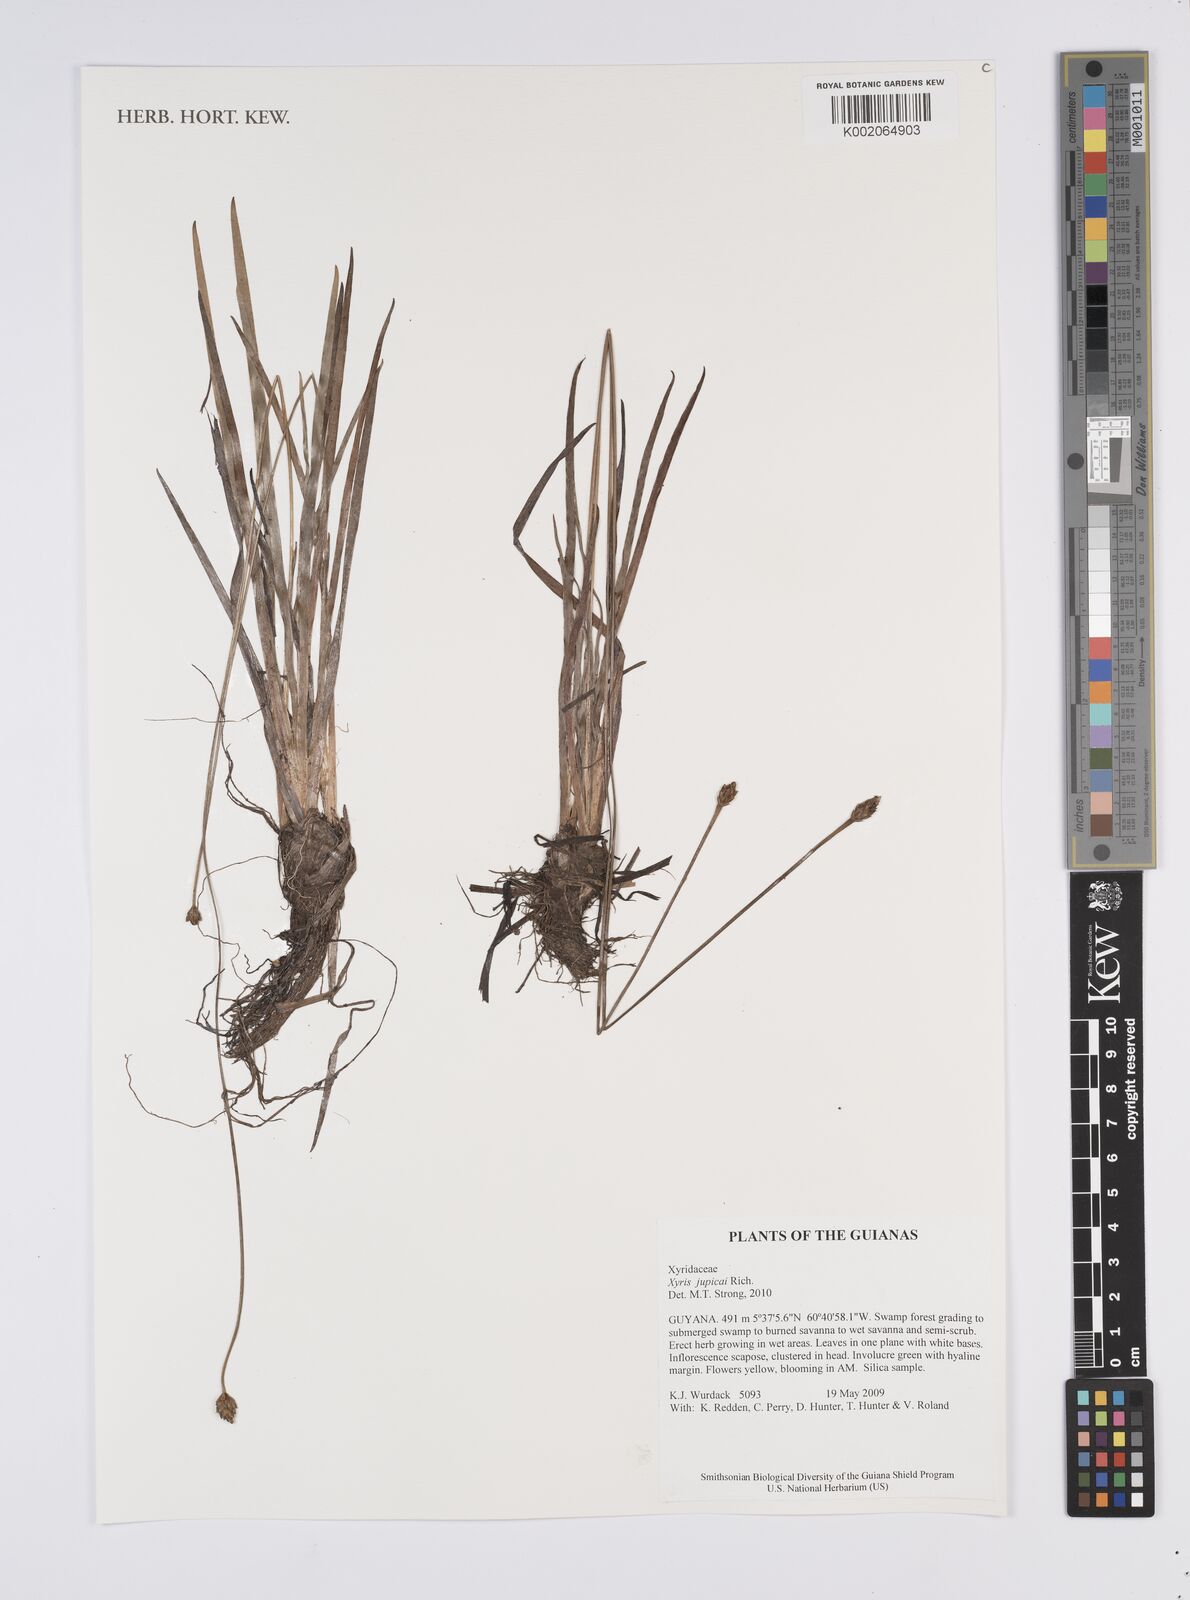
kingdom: Plantae
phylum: Tracheophyta
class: Liliopsida
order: Poales
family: Xyridaceae
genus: Xyris
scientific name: Xyris jupicai
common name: Richard's yelloweyed grass
